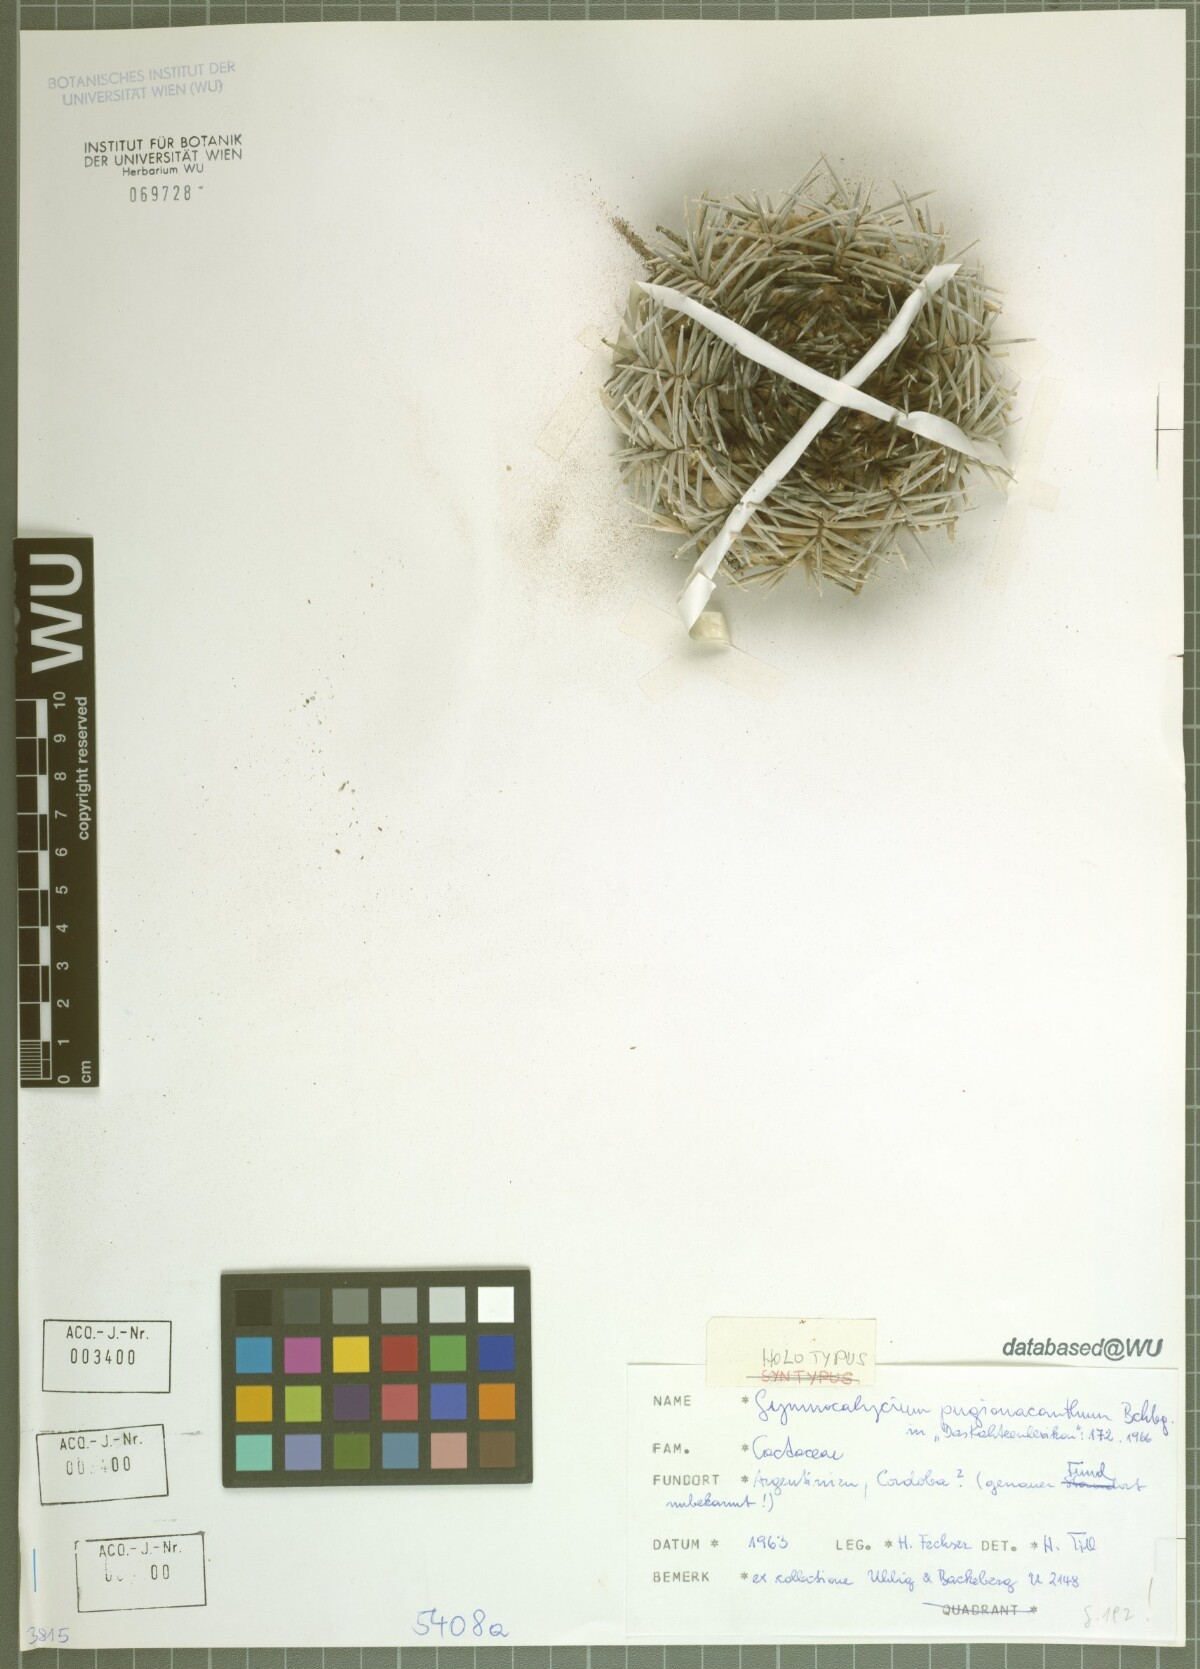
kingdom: Plantae
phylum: Tracheophyta
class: Magnoliopsida
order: Caryophyllales
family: Cactaceae
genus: Gymnocalycium
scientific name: Gymnocalycium nigriareolatum
